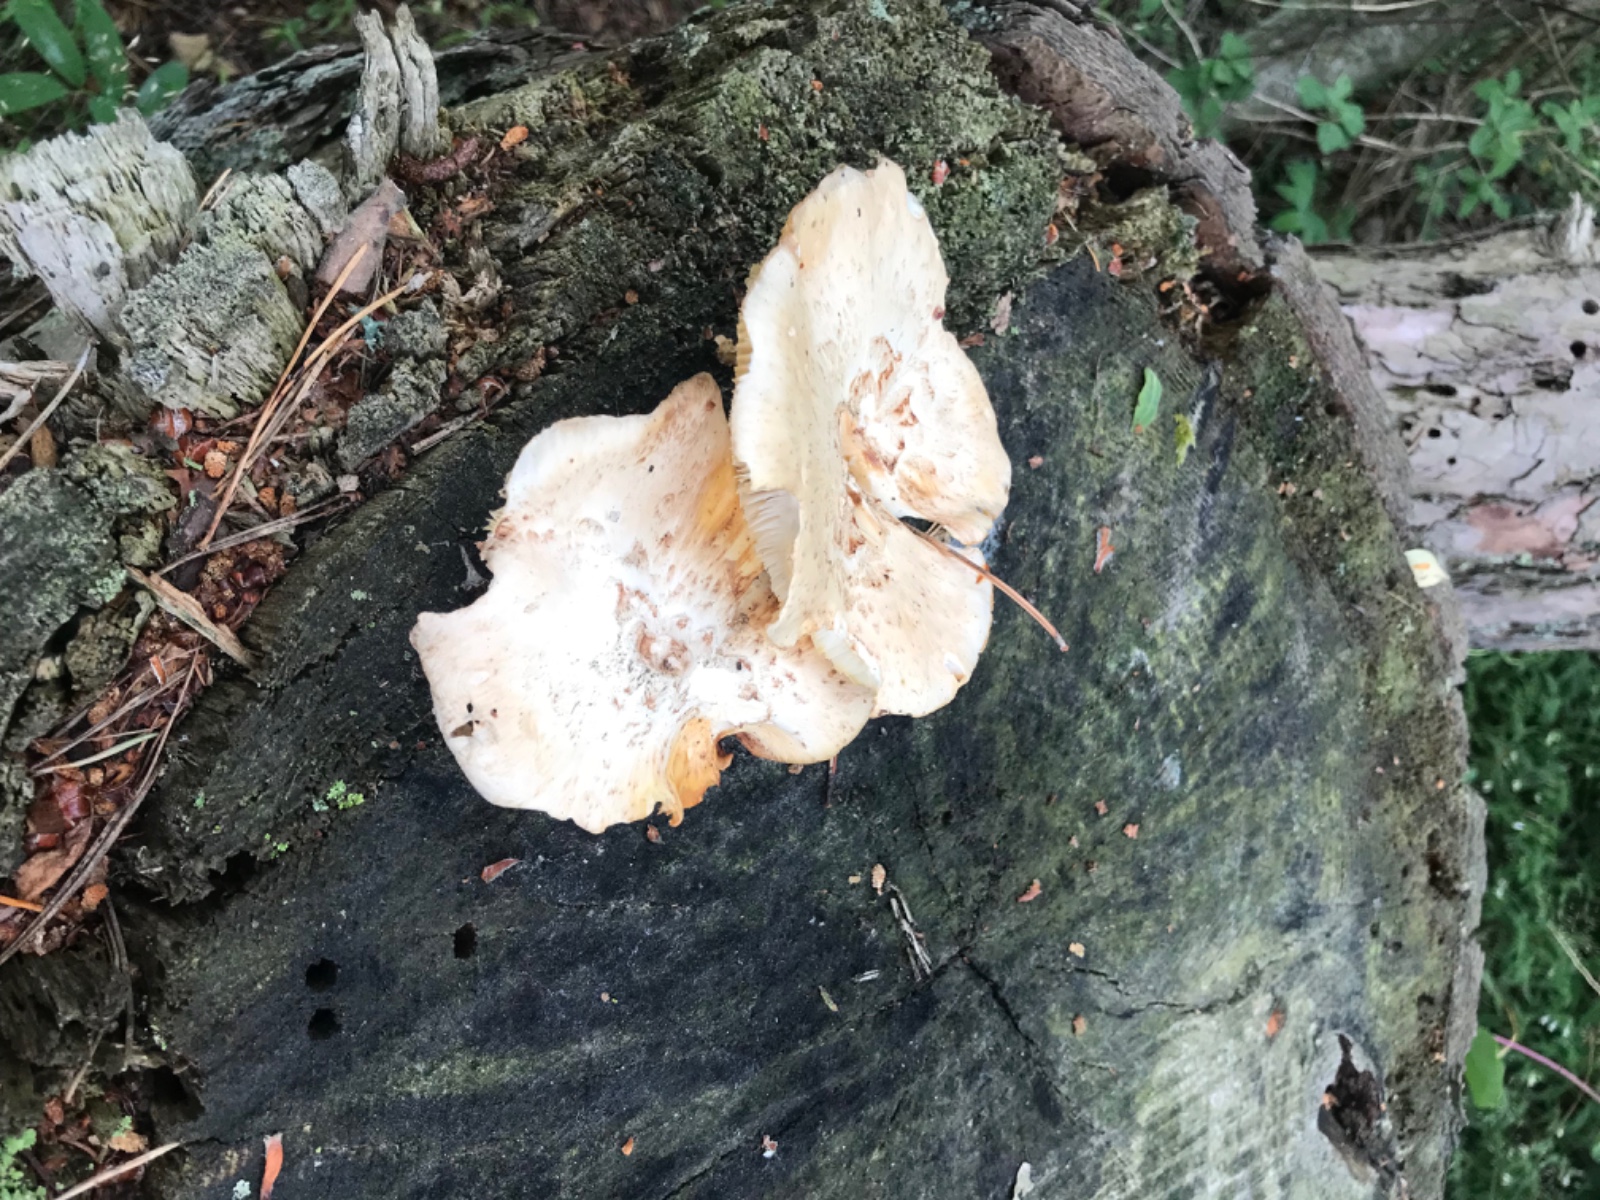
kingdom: Fungi
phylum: Basidiomycota
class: Agaricomycetes
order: Gloeophyllales
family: Gloeophyllaceae
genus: Neolentinus
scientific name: Neolentinus lepideus
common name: skællet sejhat
